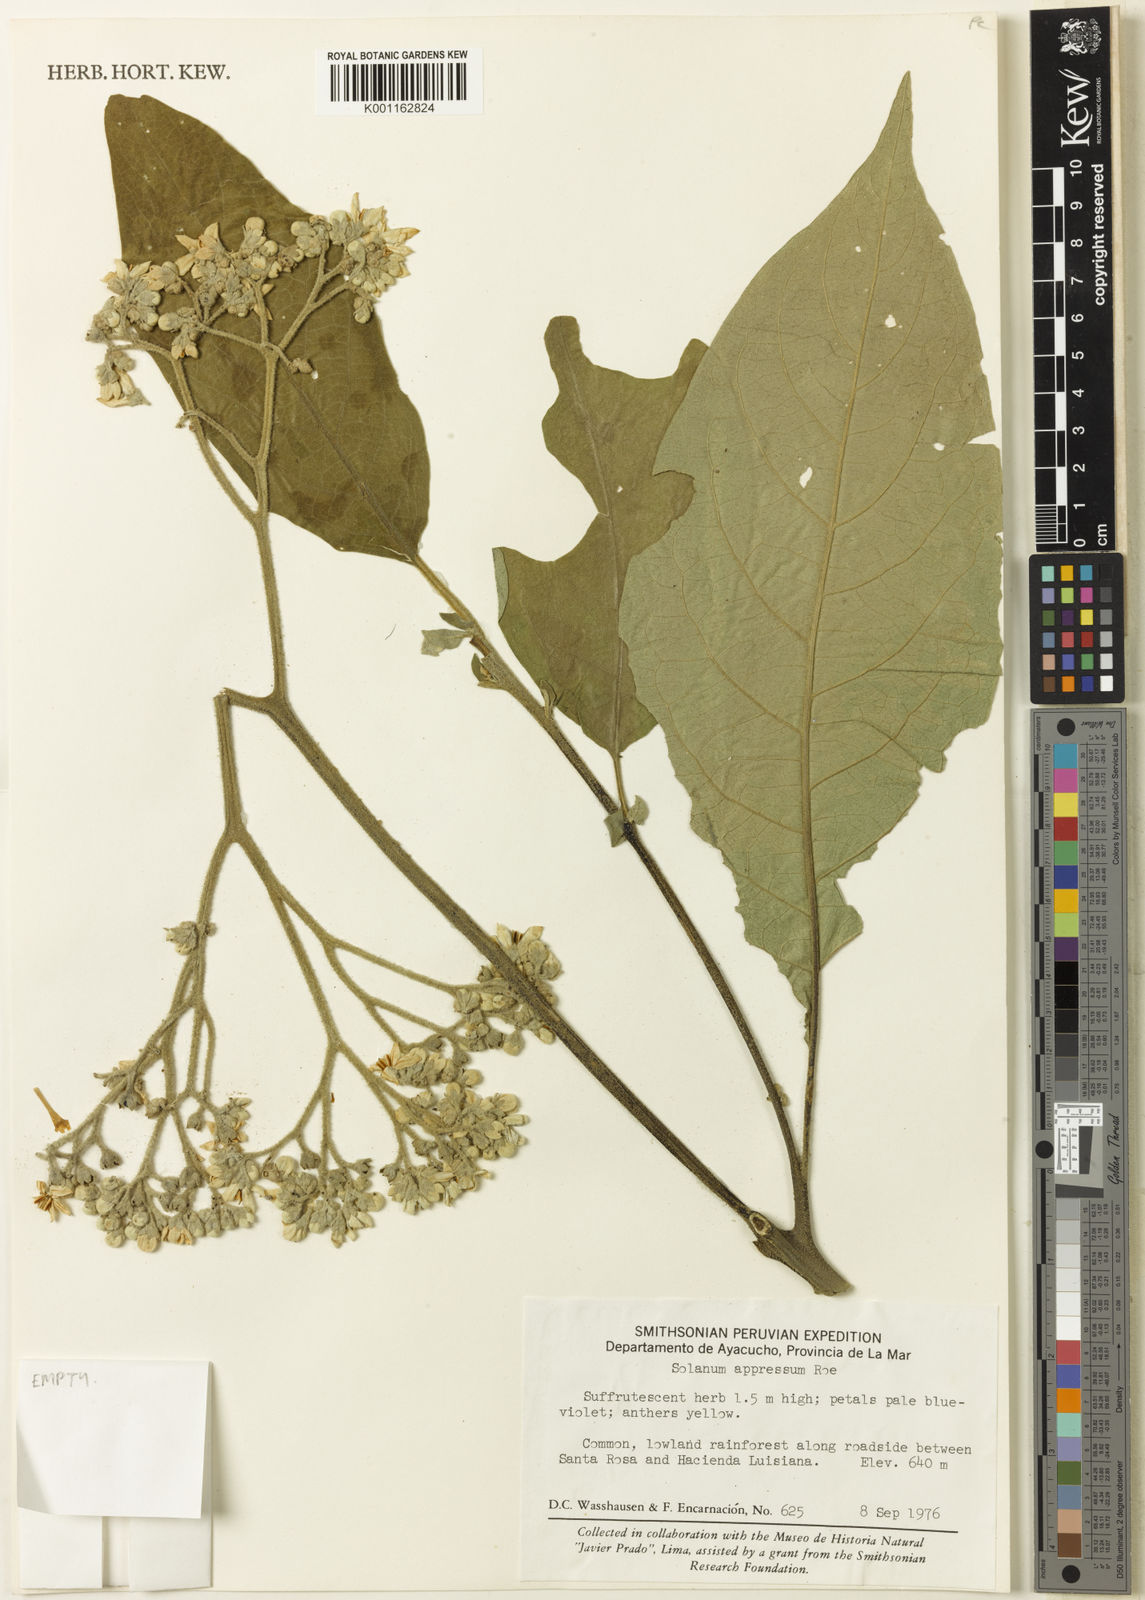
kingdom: Plantae
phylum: Tracheophyta
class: Magnoliopsida
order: Solanales
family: Solanaceae
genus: Solanum
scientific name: Solanum appressum
